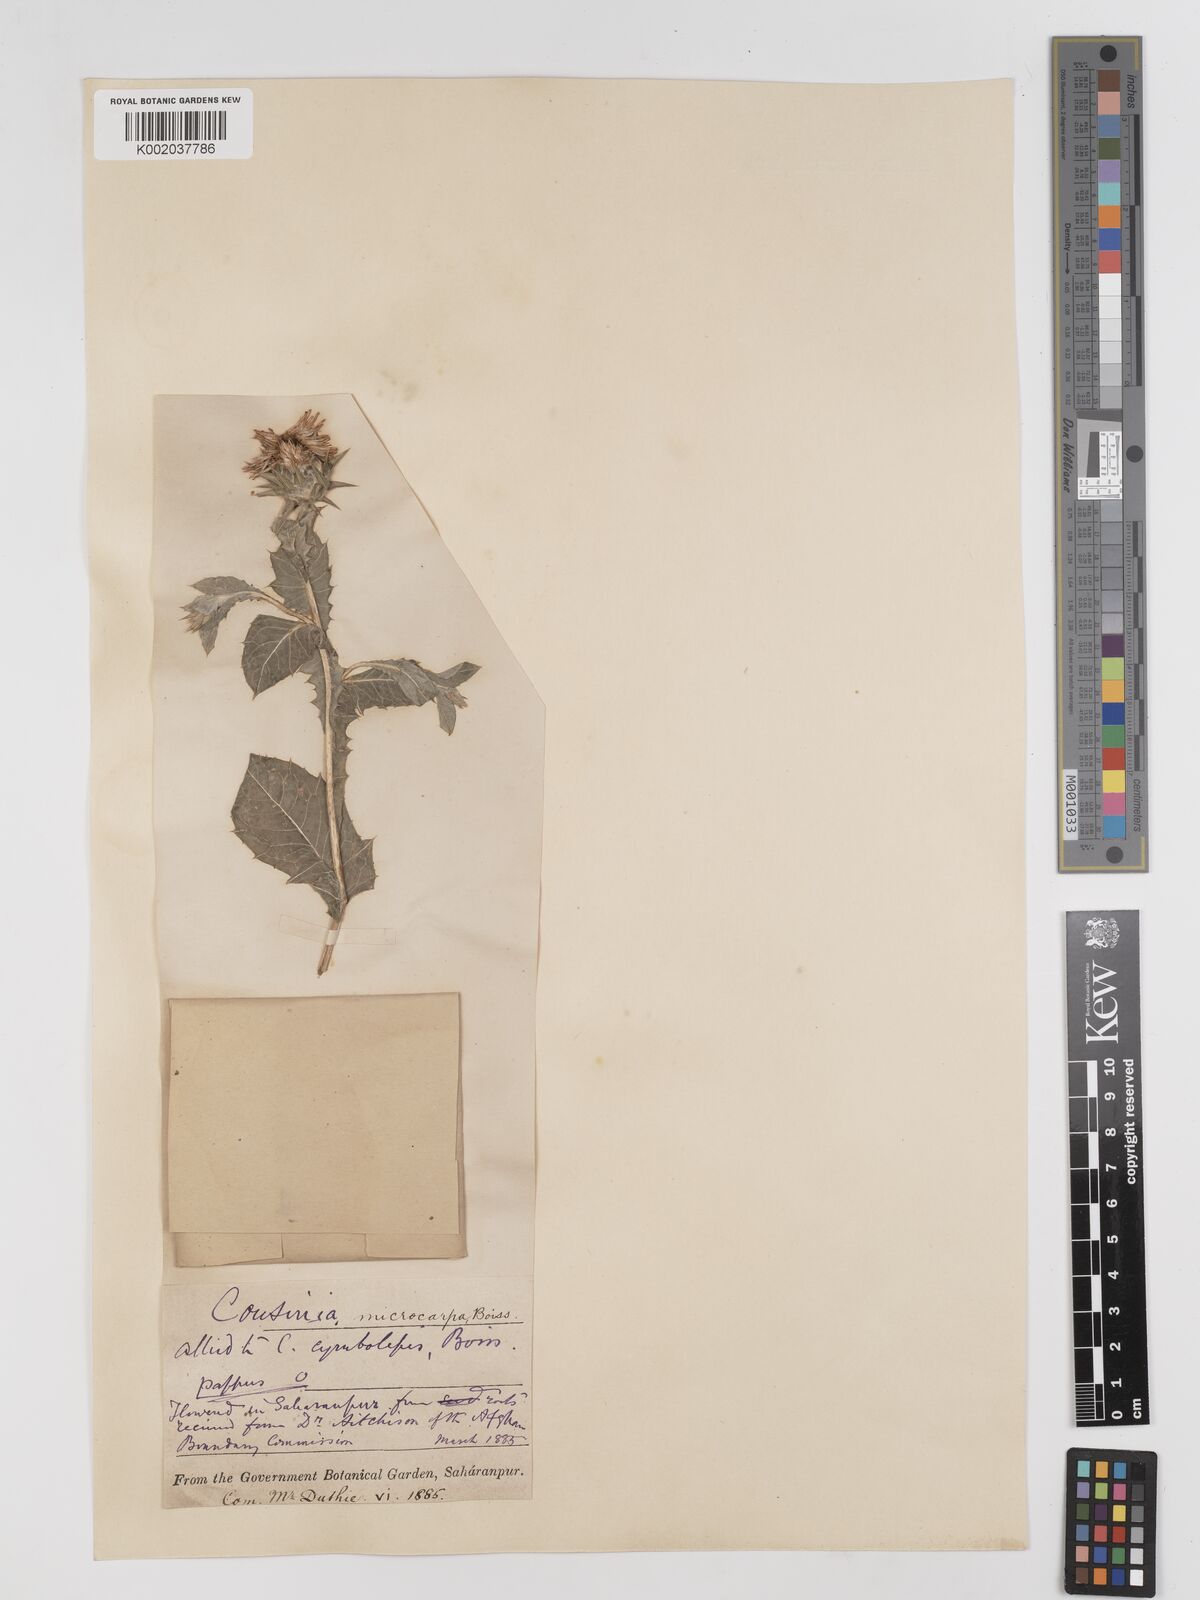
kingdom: Plantae
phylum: Tracheophyta
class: Magnoliopsida
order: Asterales
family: Asteraceae
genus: Cousinia
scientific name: Cousinia microcarpa
